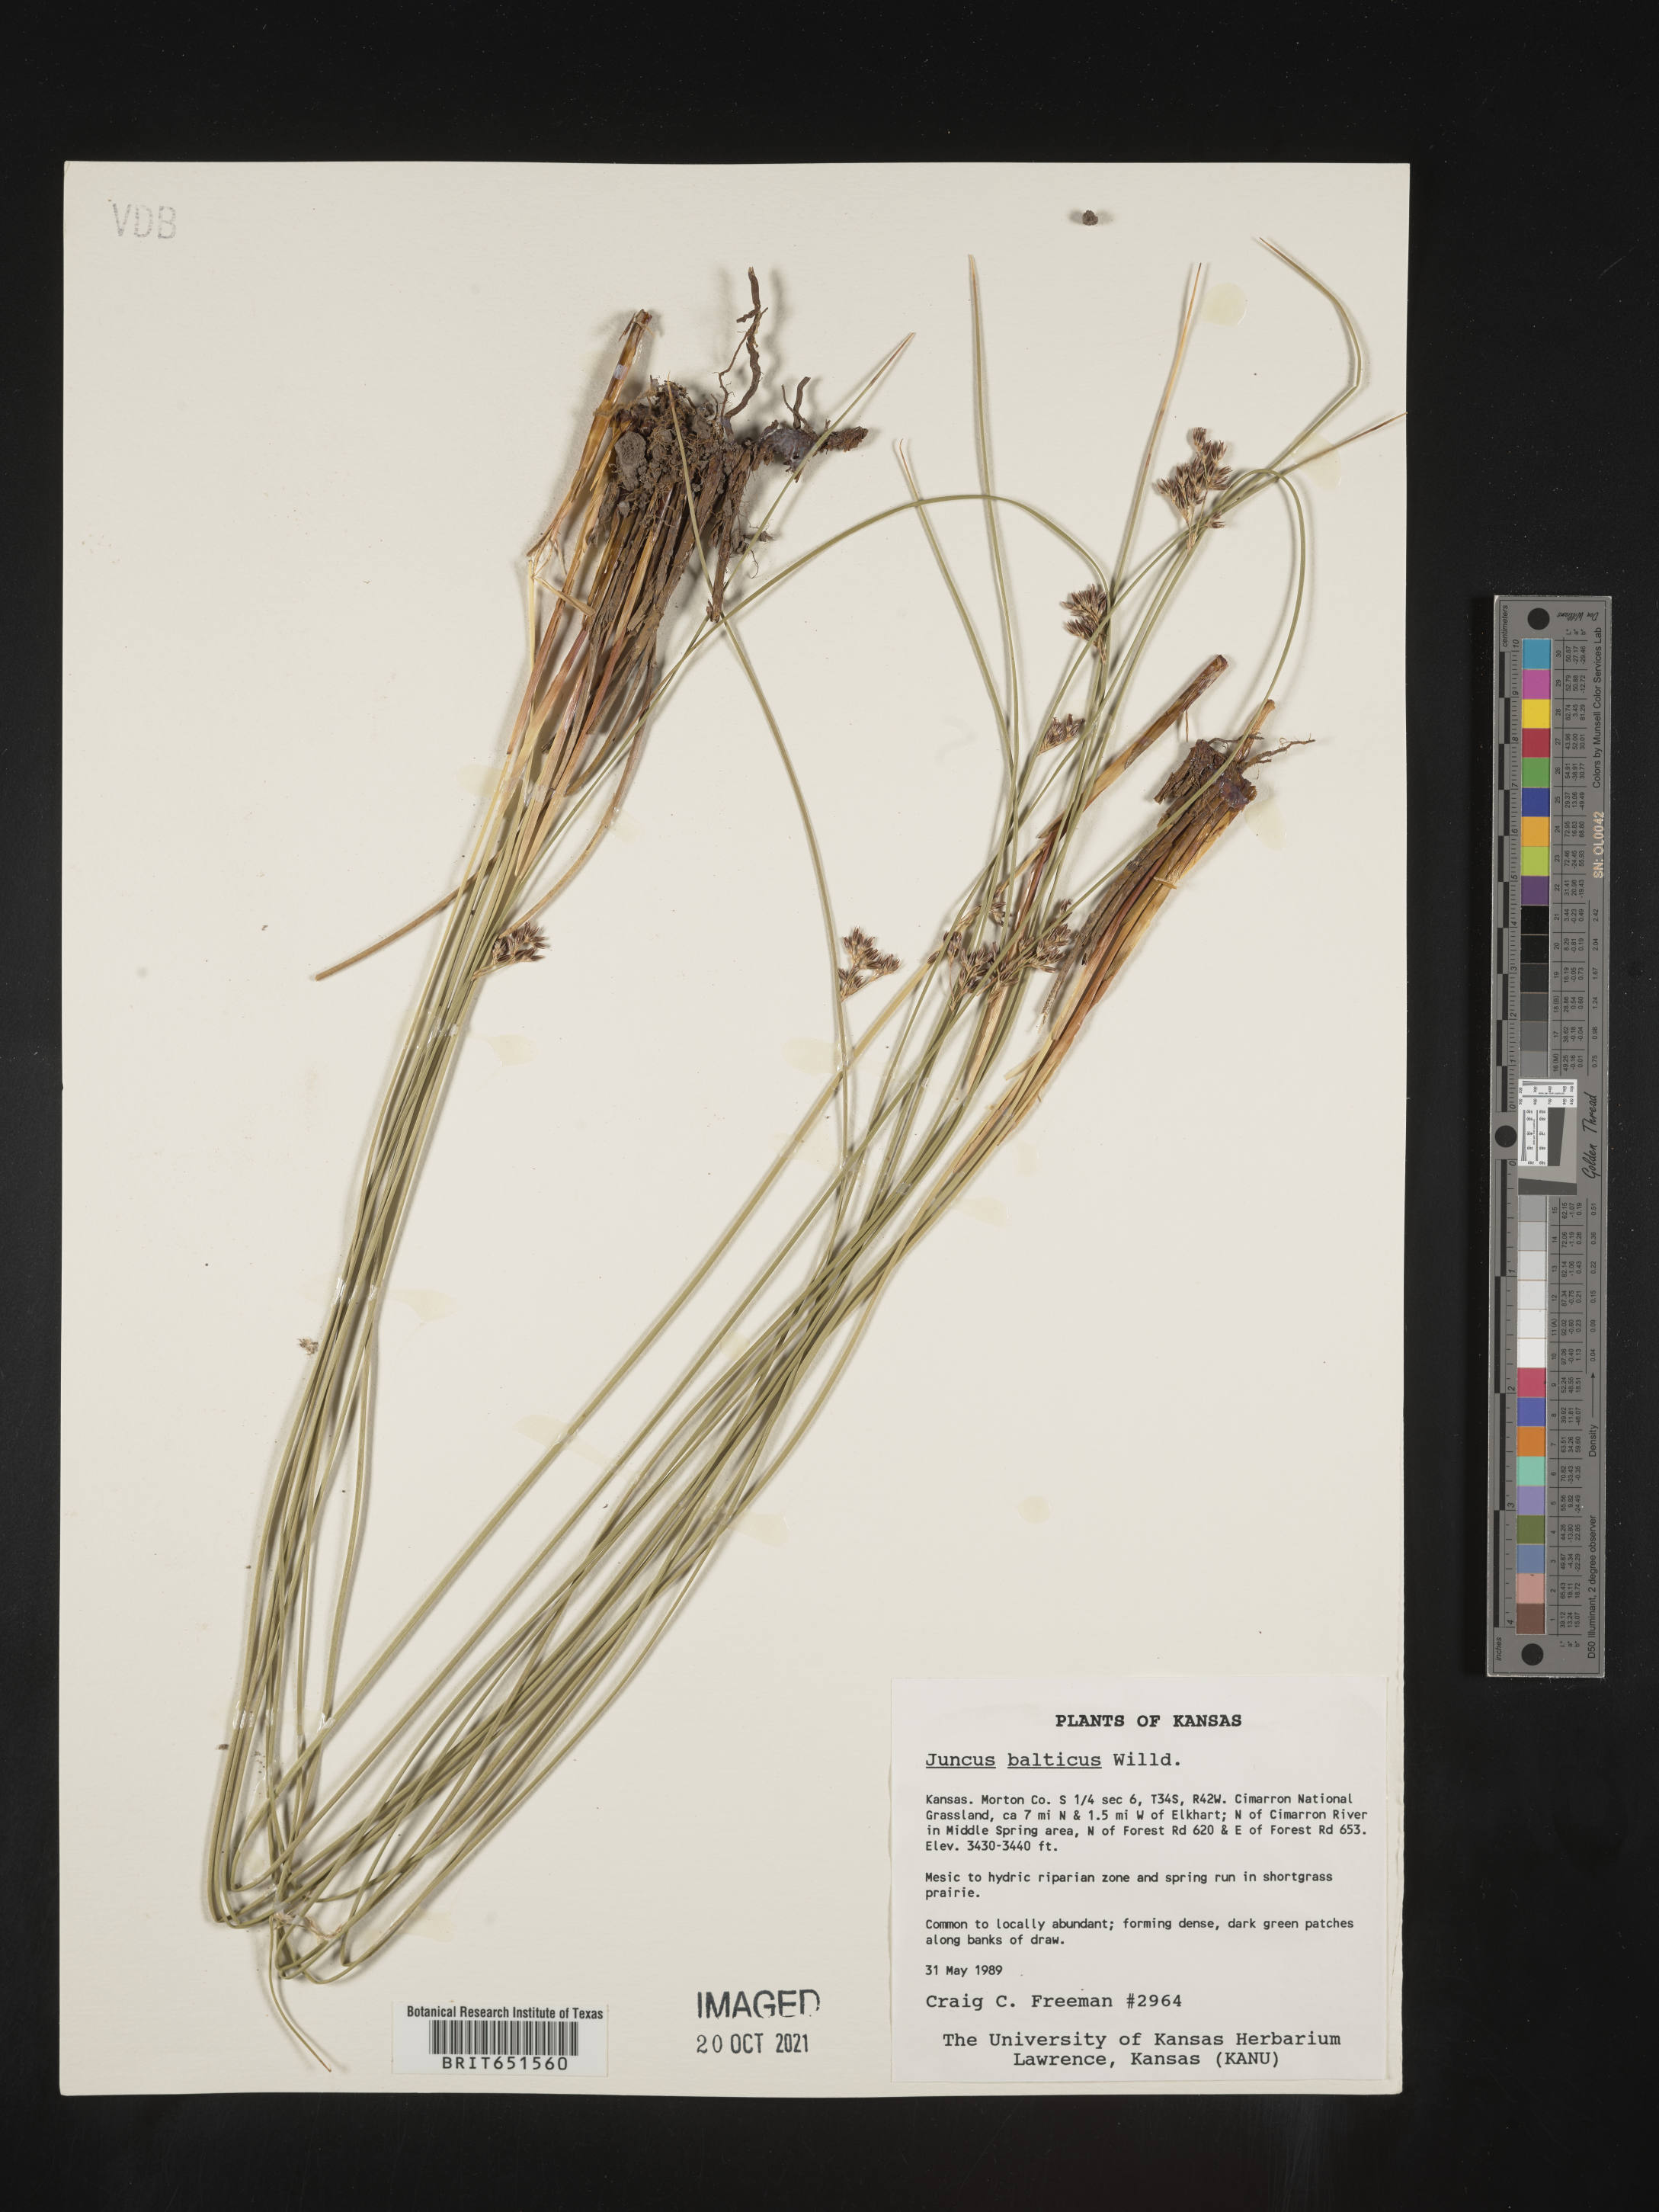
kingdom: Plantae
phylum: Tracheophyta
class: Liliopsida
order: Poales
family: Juncaceae
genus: Juncus
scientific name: Juncus balticus
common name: Baltic rush
